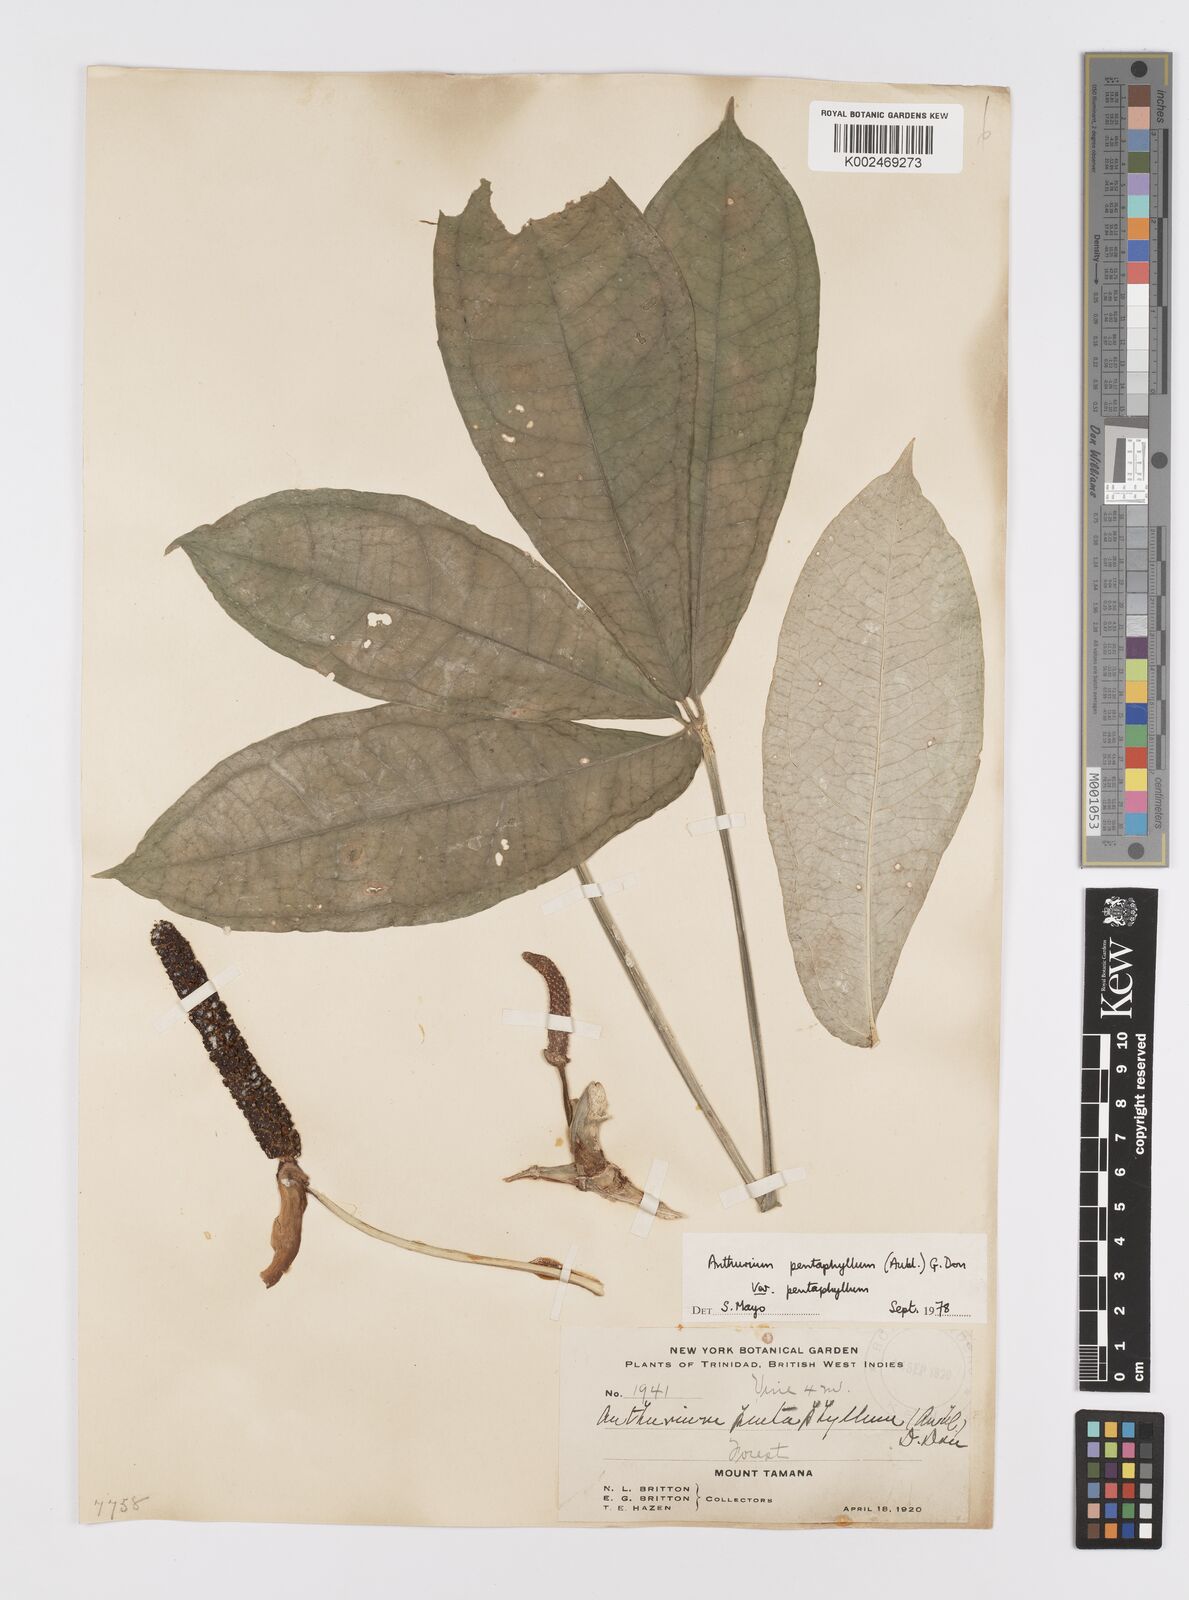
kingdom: Plantae
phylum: Tracheophyta
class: Liliopsida
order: Alismatales
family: Araceae
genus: Anthurium
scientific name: Anthurium pentaphyllum
